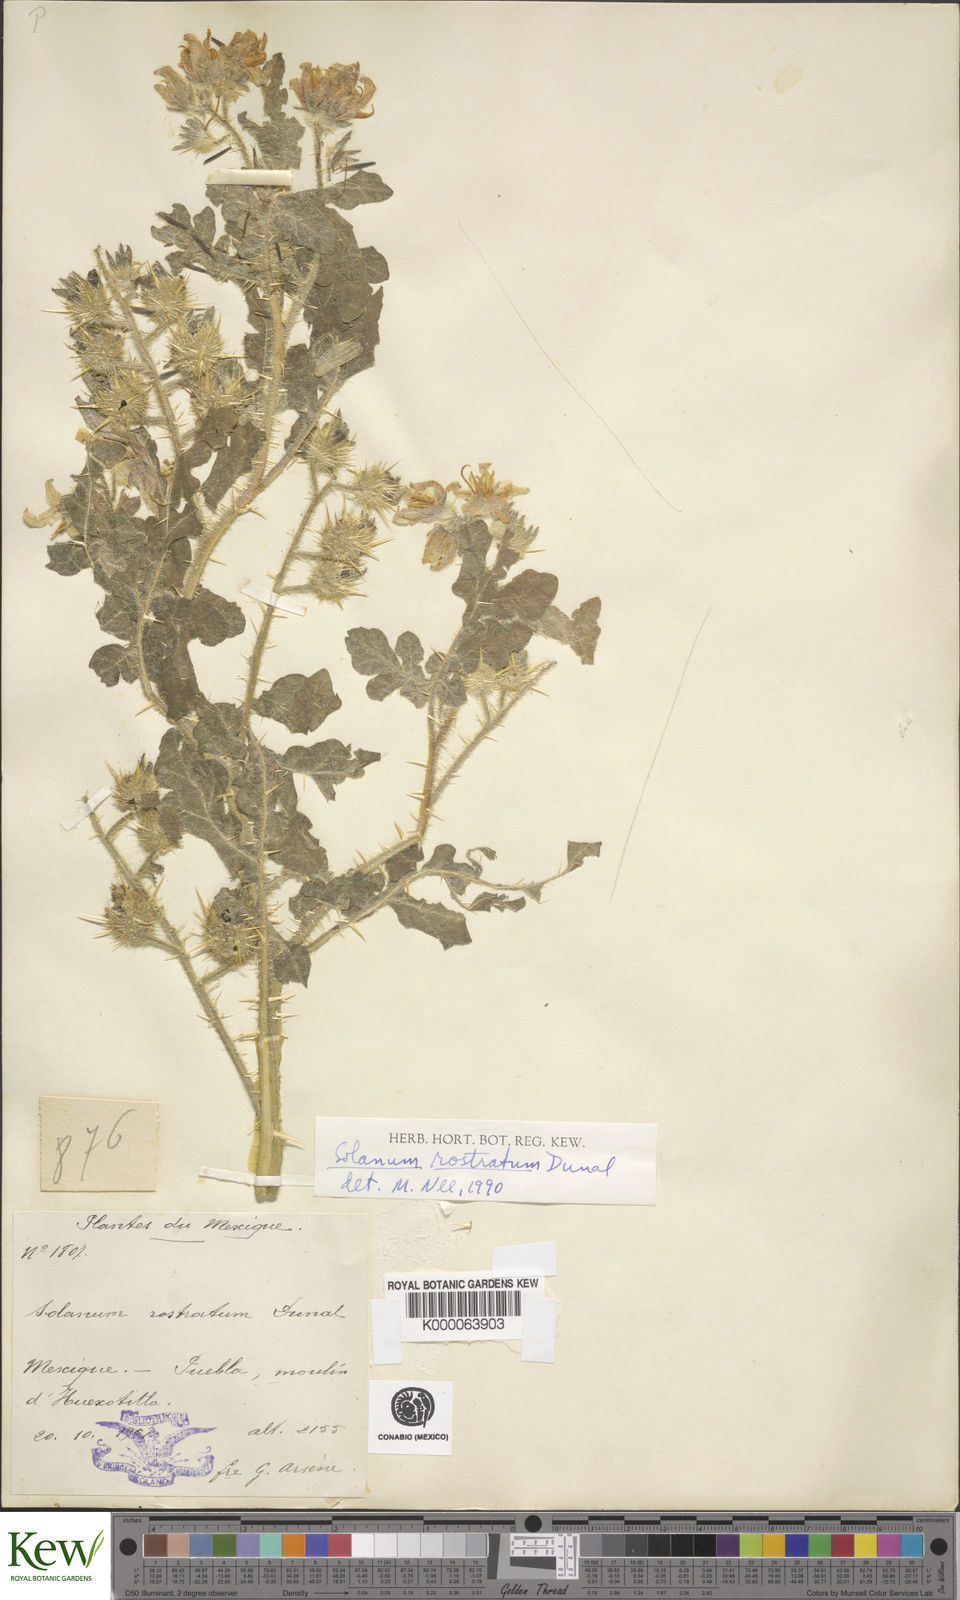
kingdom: Plantae
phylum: Tracheophyta
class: Magnoliopsida
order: Solanales
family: Solanaceae
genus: Solanum
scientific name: Solanum angustifolium
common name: Buffalobur nightshade
